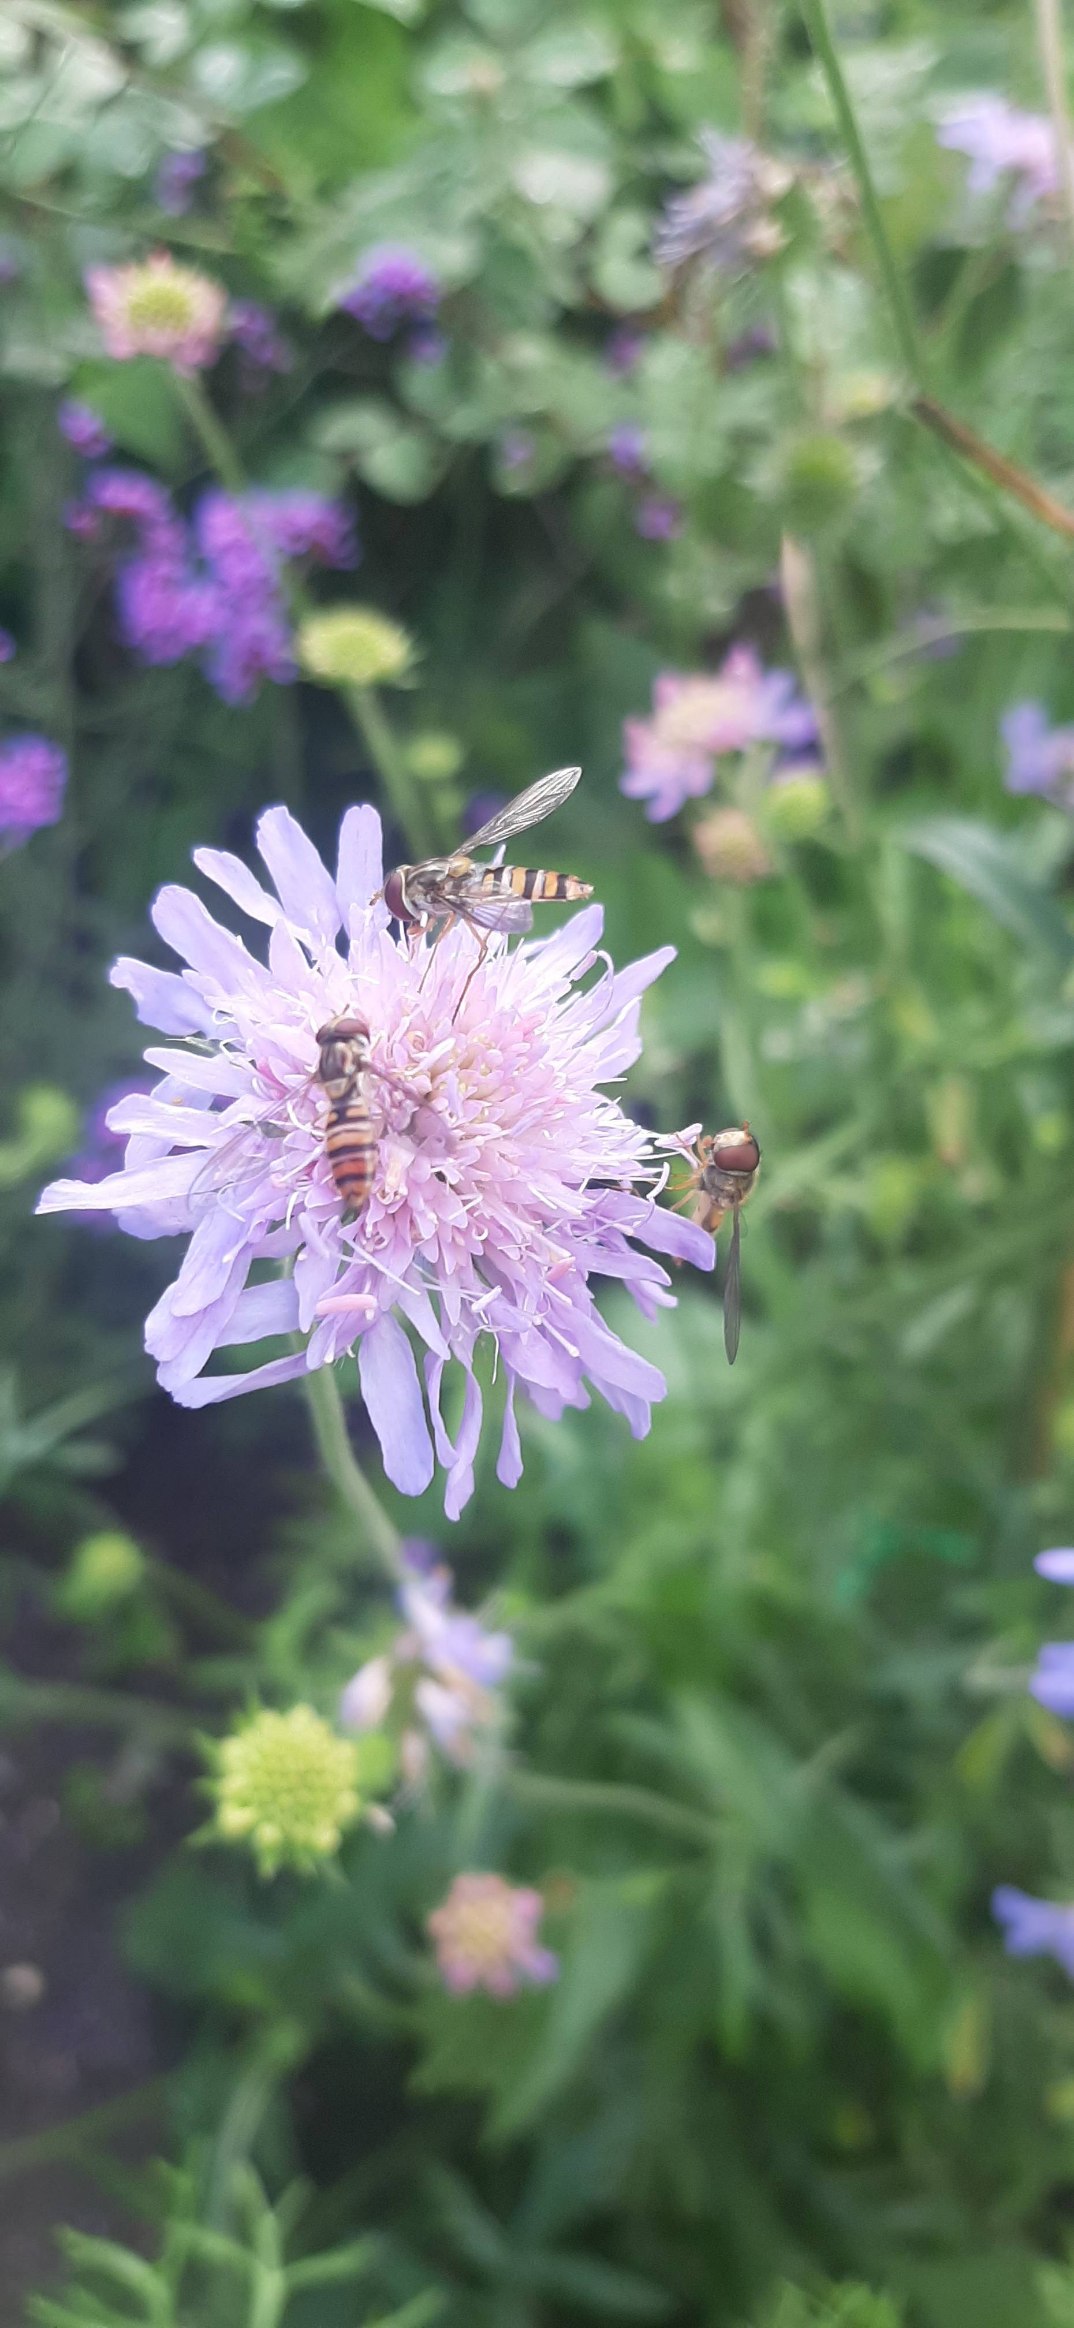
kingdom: Animalia
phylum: Arthropoda
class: Insecta
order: Diptera
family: Syrphidae
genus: Episyrphus
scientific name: Episyrphus balteatus
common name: Dobbeltbåndet svirreflue
